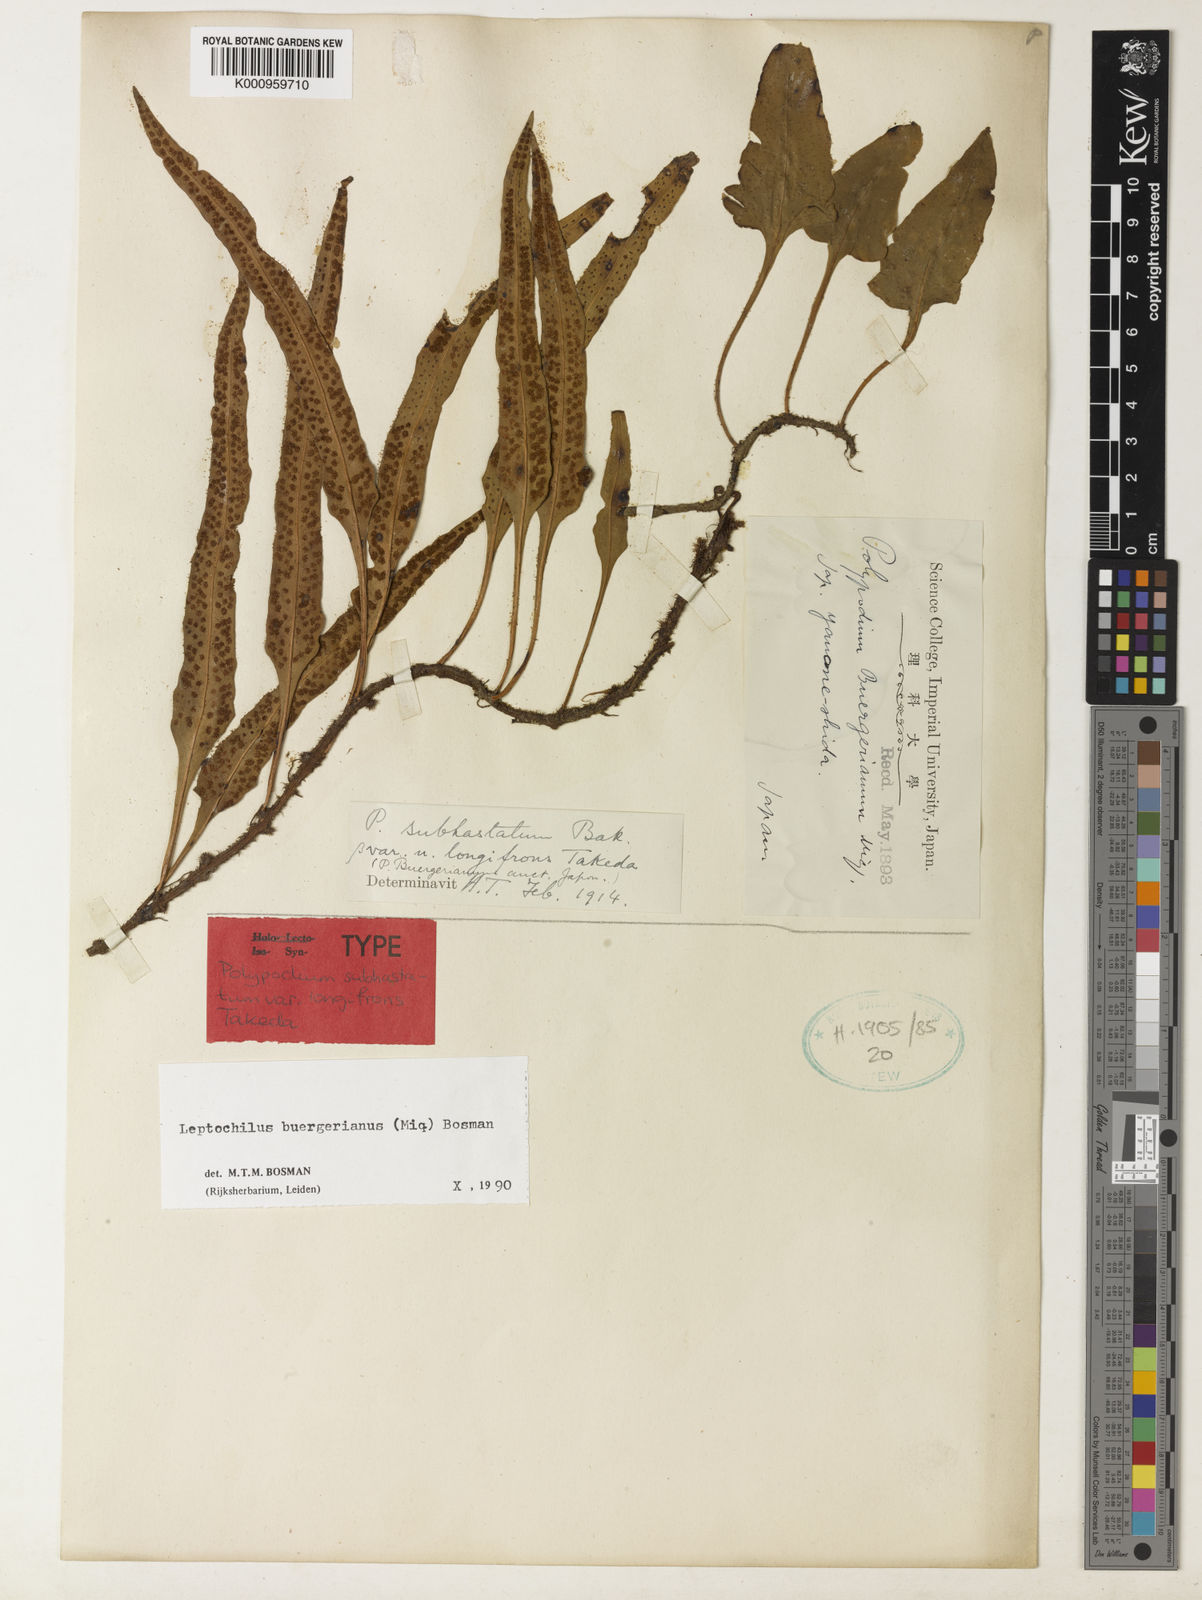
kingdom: Plantae
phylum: Tracheophyta
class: Polypodiopsida
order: Polypodiales
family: Polypodiaceae
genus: Lepisorus
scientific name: Lepisorus buergerianus
